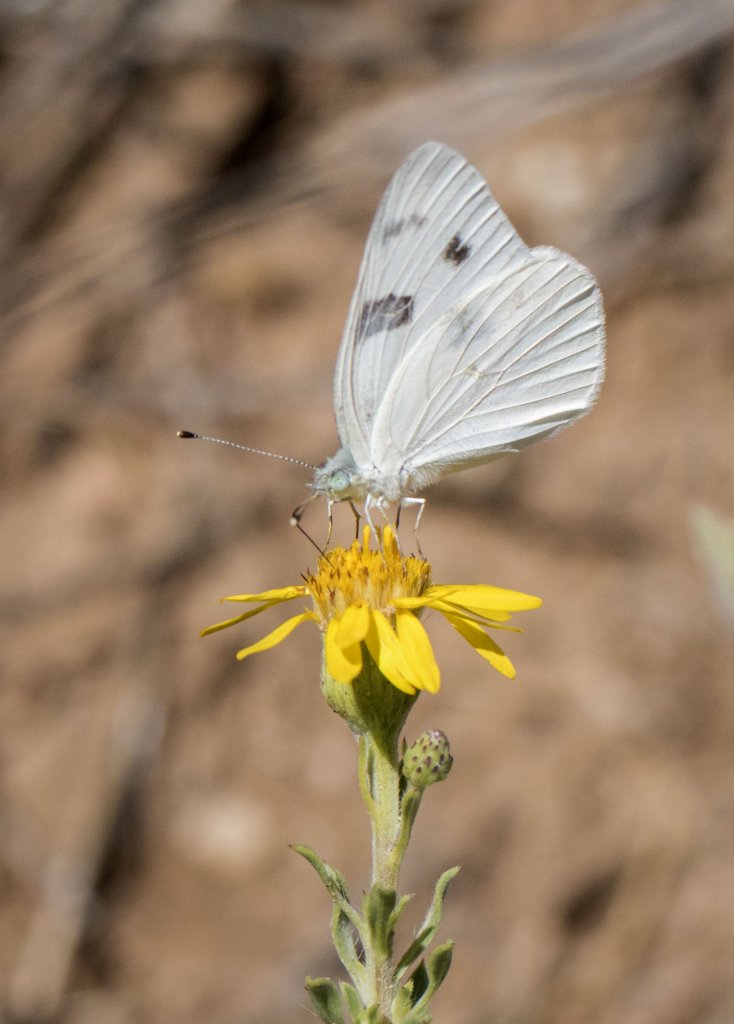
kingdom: Animalia
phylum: Arthropoda
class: Insecta
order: Lepidoptera
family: Pieridae
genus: Pontia
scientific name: Pontia protodice
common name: Checkered White
